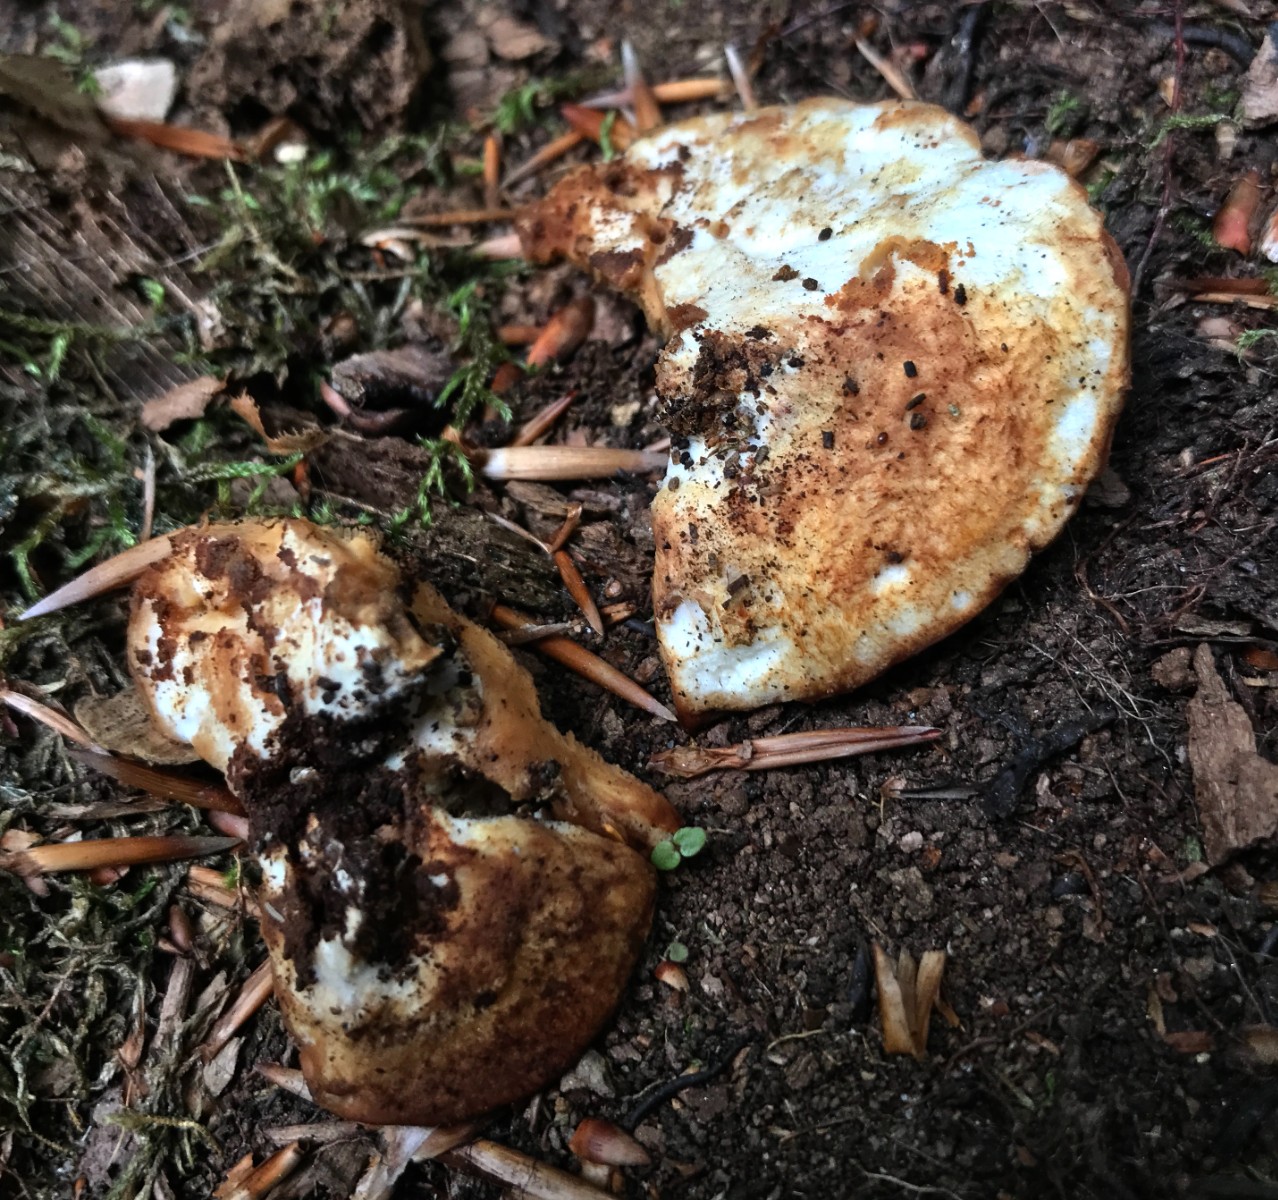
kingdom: Fungi
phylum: Basidiomycota
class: Agaricomycetes
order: Polyporales
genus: Fuscopostia
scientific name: Fuscopostia fragilis
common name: brunende kødporesvamp
